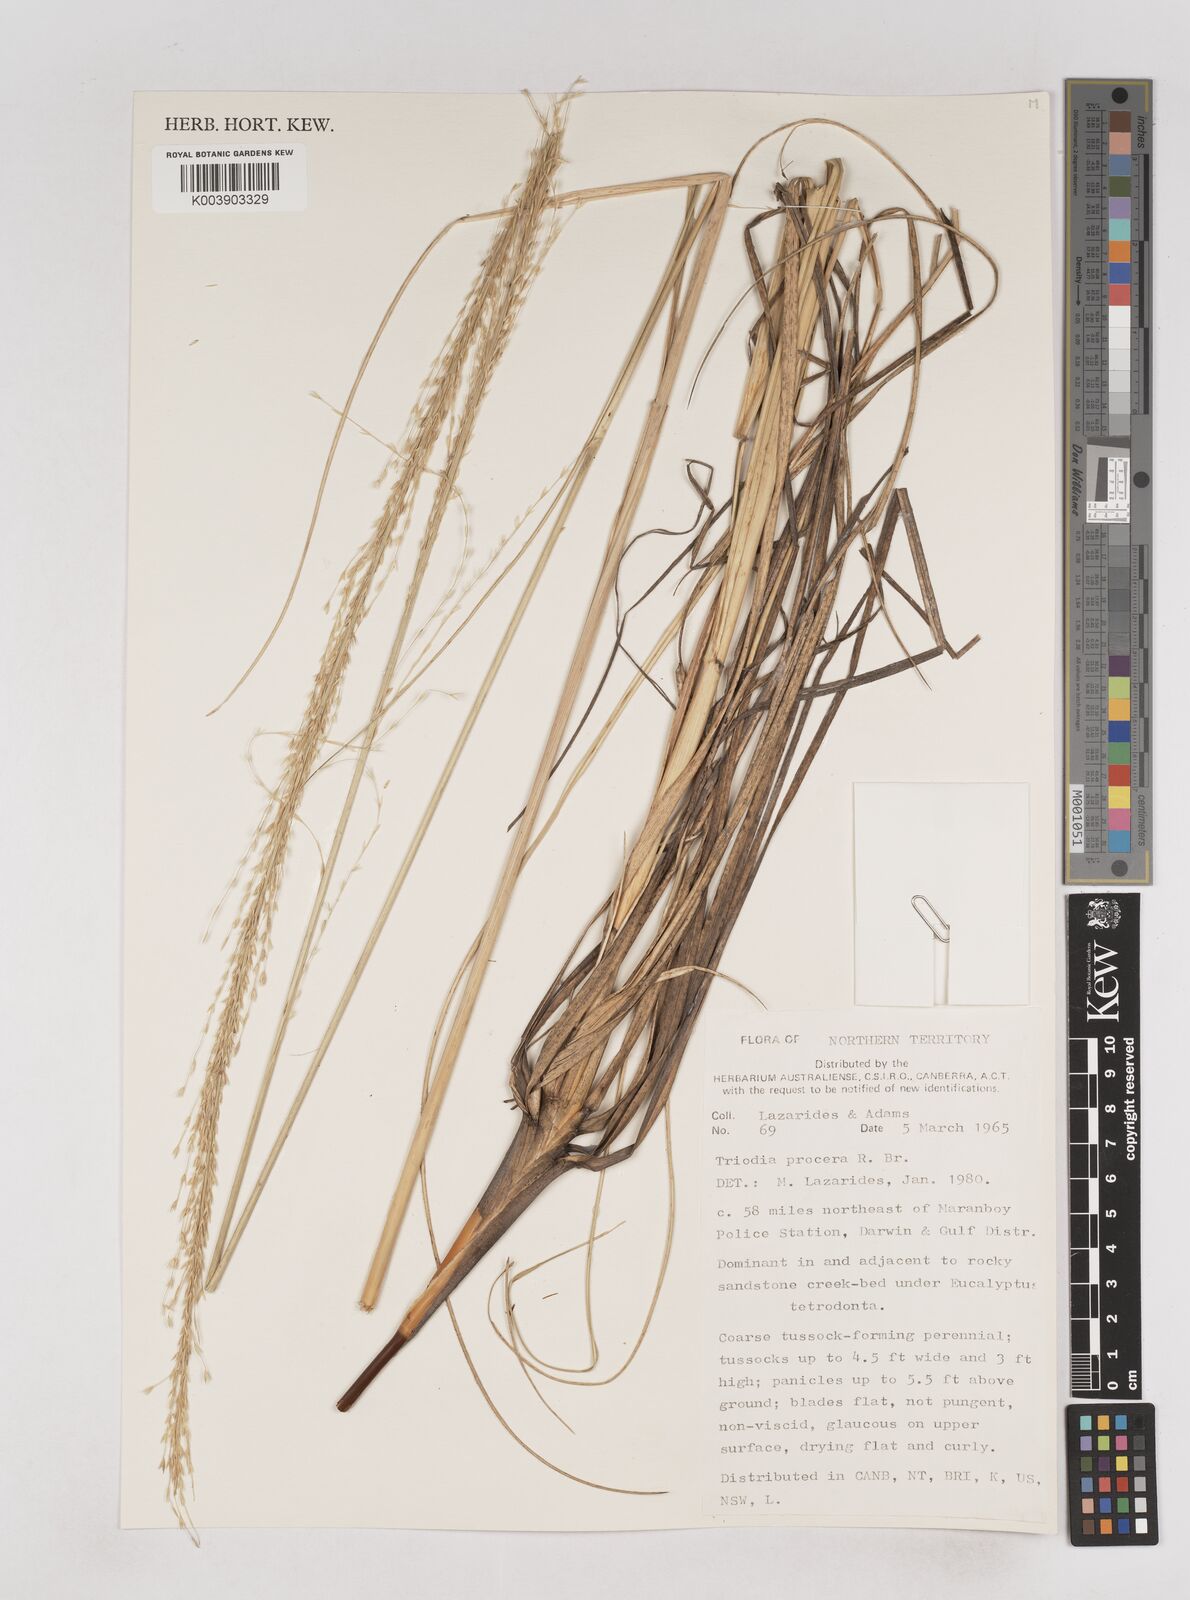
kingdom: Plantae
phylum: Tracheophyta
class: Liliopsida
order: Poales
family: Poaceae
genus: Triodia
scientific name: Triodia procera
